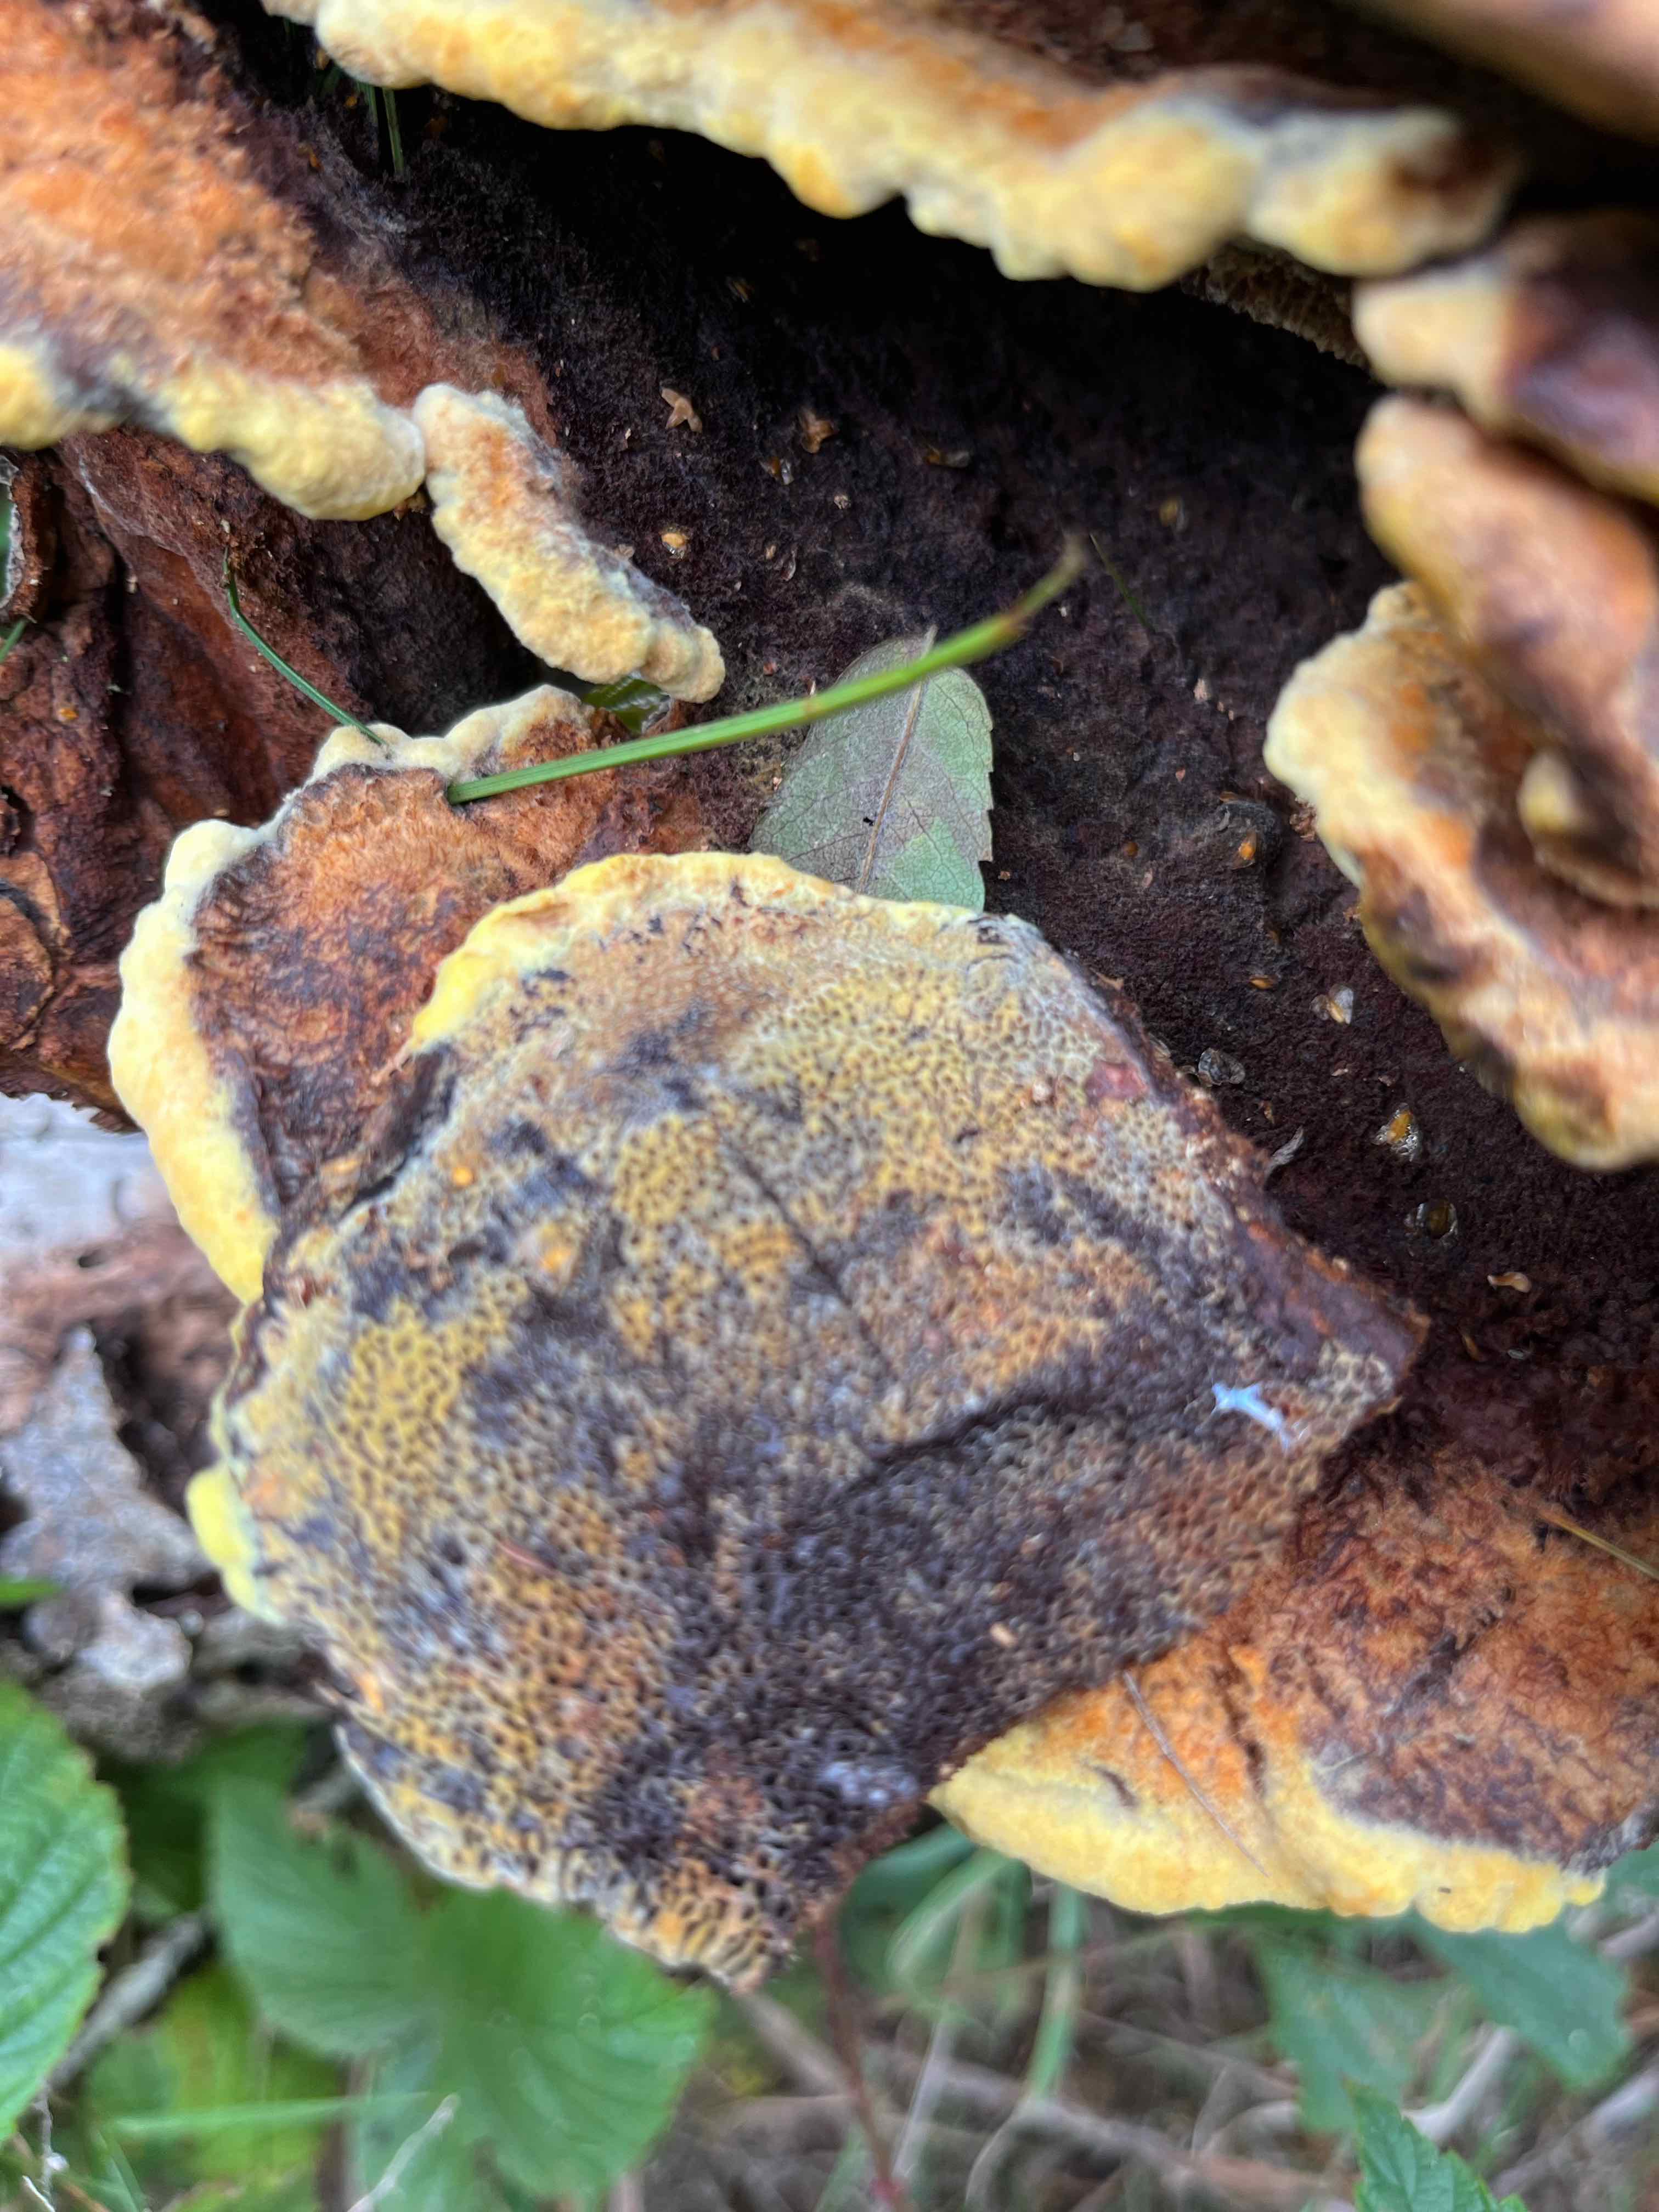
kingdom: Fungi
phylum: Basidiomycota
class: Agaricomycetes
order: Polyporales
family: Laetiporaceae
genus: Phaeolus
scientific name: Phaeolus schweinitzii
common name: brunporesvamp
